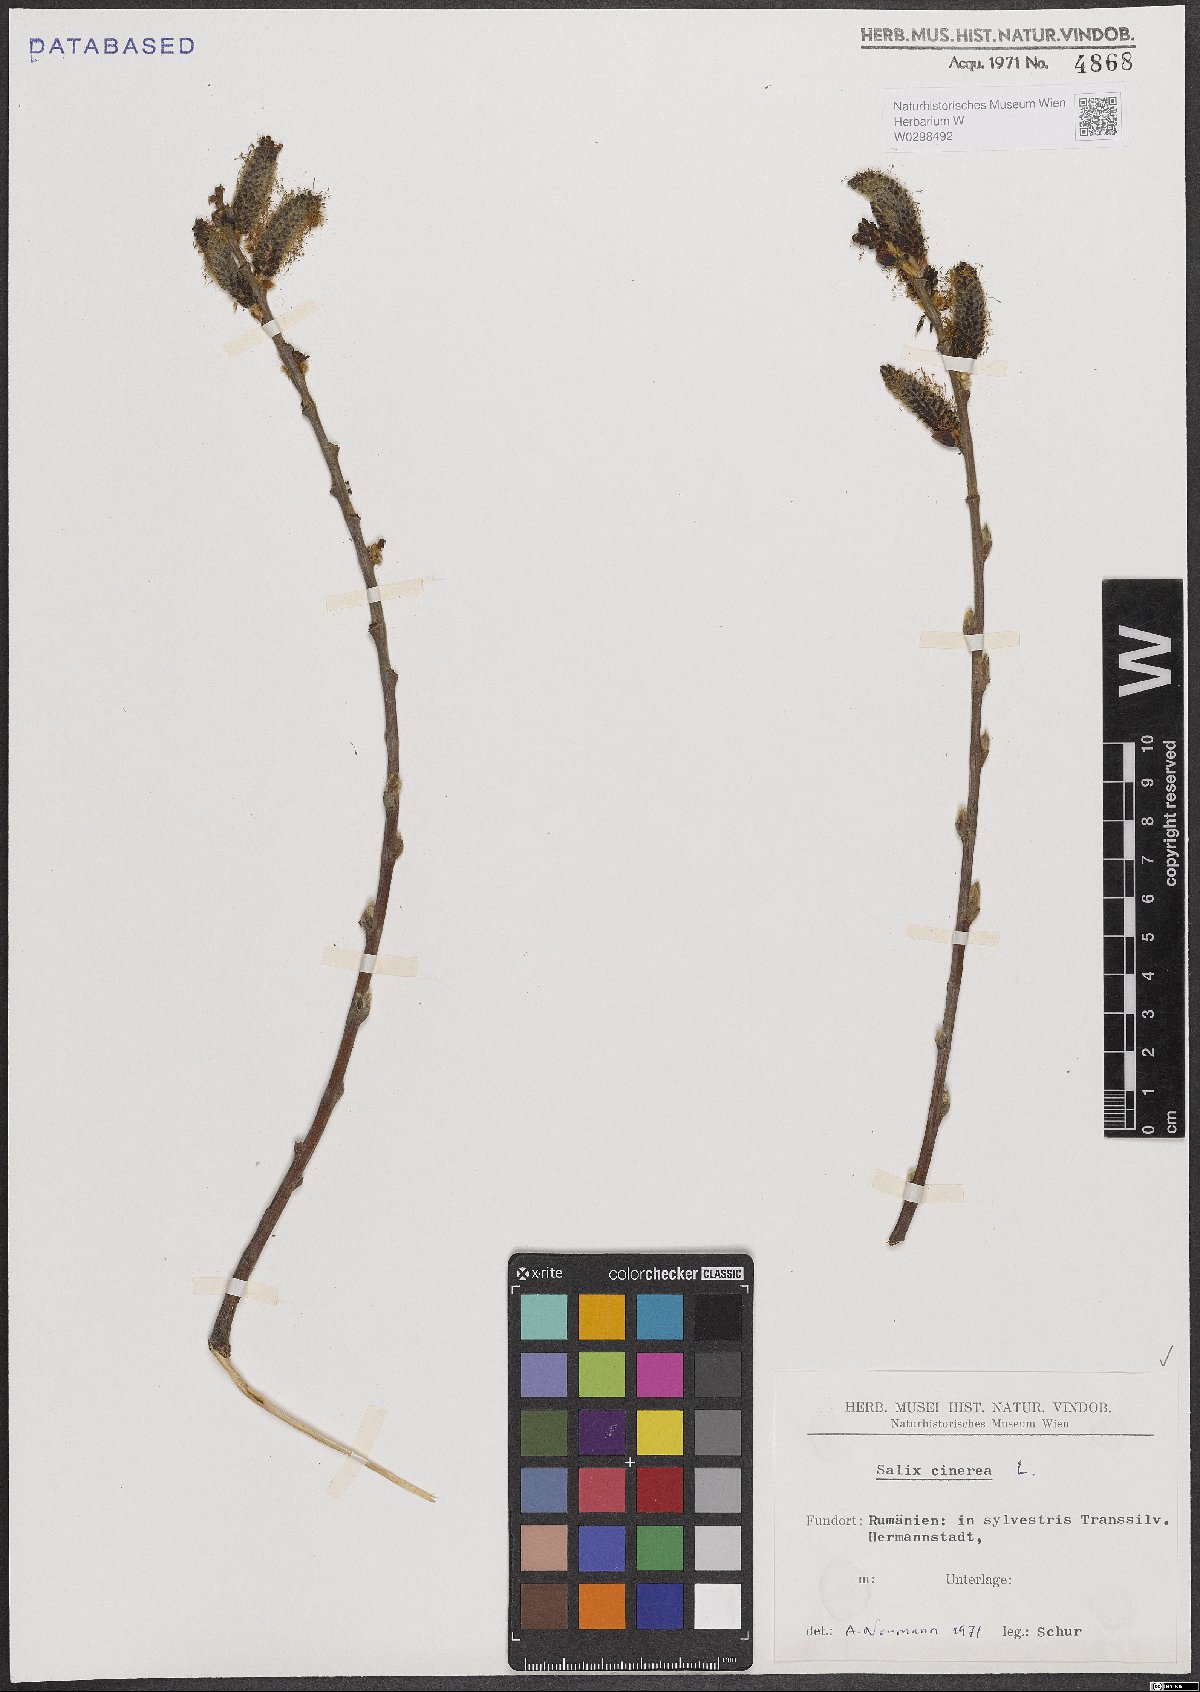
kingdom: Plantae
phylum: Tracheophyta
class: Magnoliopsida
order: Malpighiales
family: Salicaceae
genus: Salix
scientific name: Salix cinerea
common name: Common sallow
